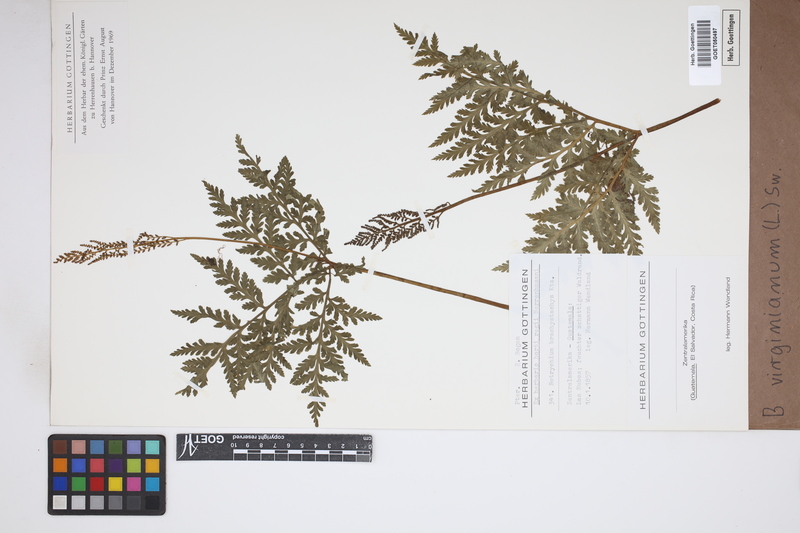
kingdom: Plantae
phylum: Tracheophyta
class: Polypodiopsida
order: Ophioglossales
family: Ophioglossaceae
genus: Botrychium
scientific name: Botrychium virginianum
